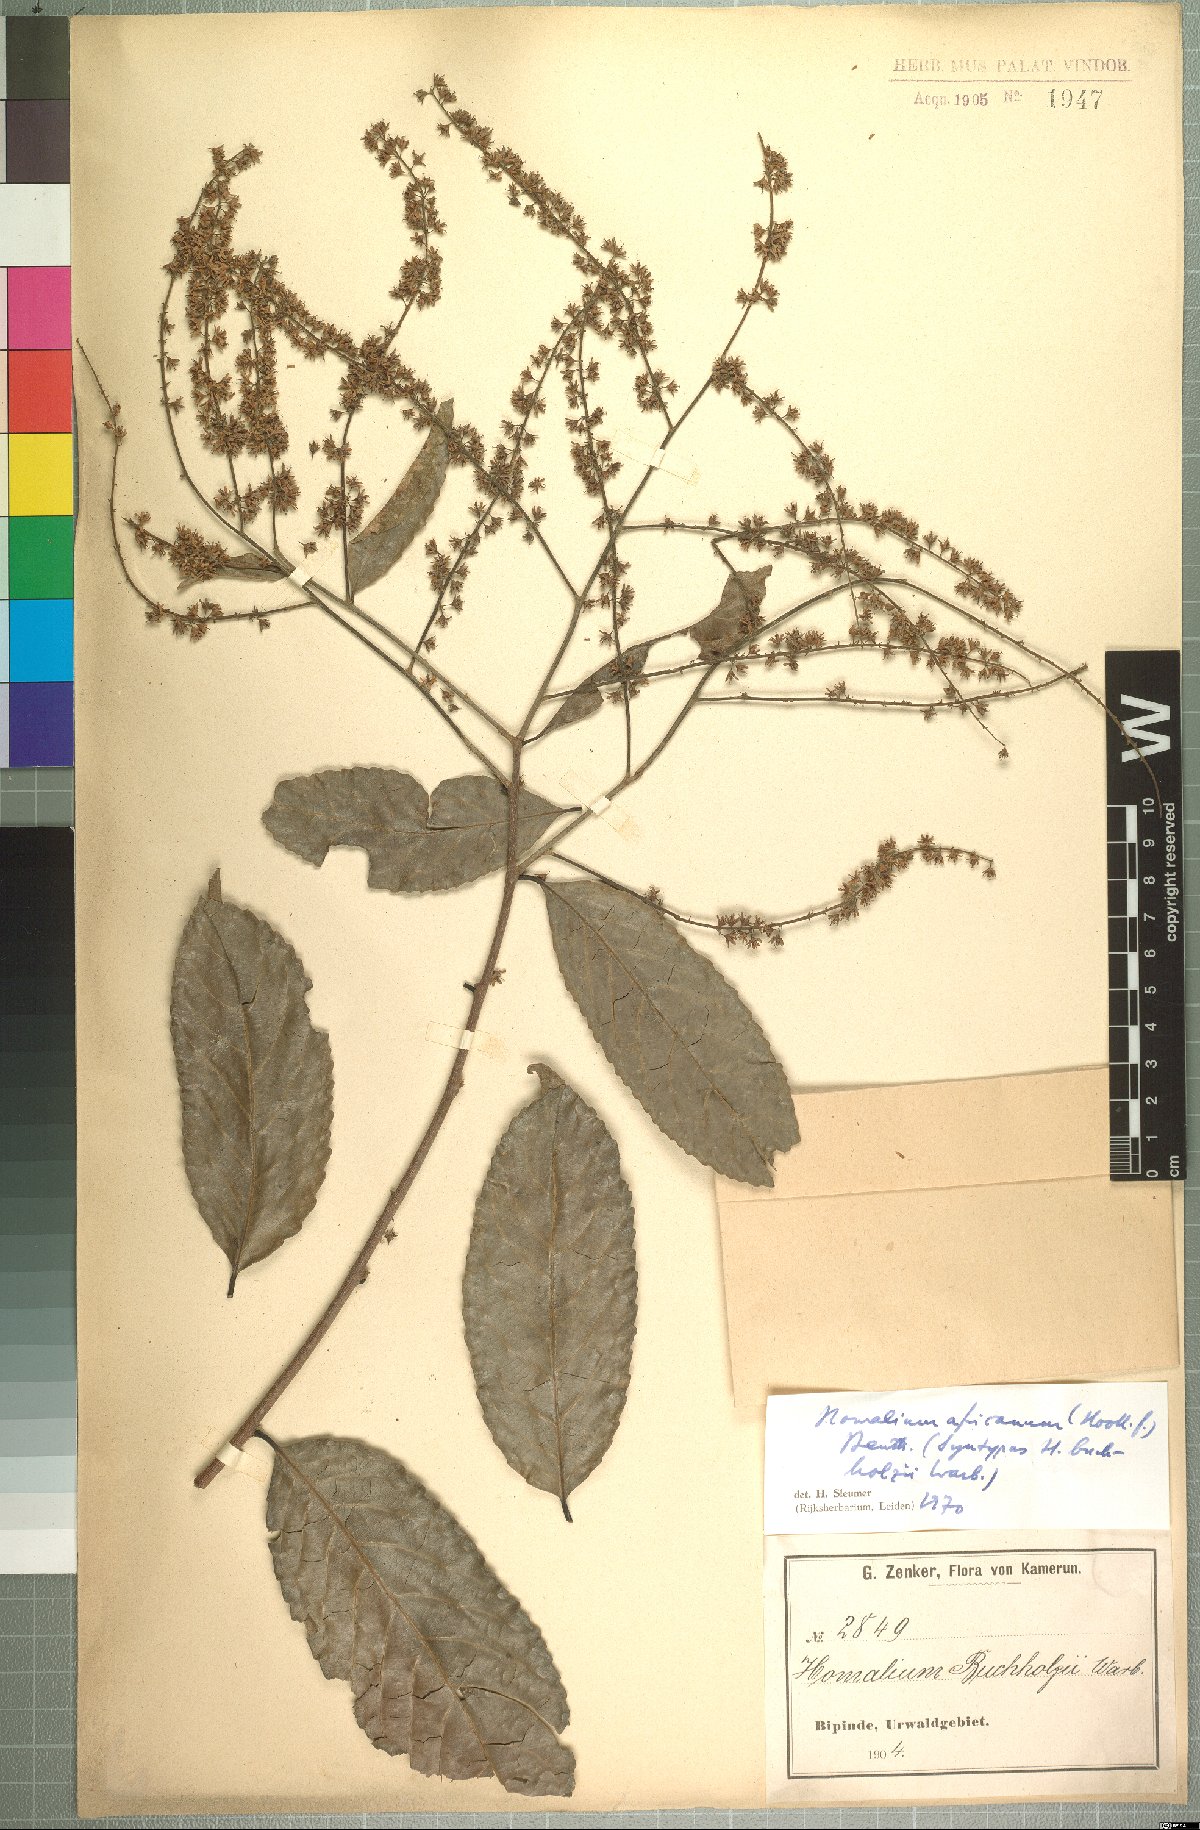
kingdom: Plantae
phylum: Tracheophyta
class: Magnoliopsida
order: Malpighiales
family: Salicaceae
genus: Homalium
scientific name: Homalium africanum
